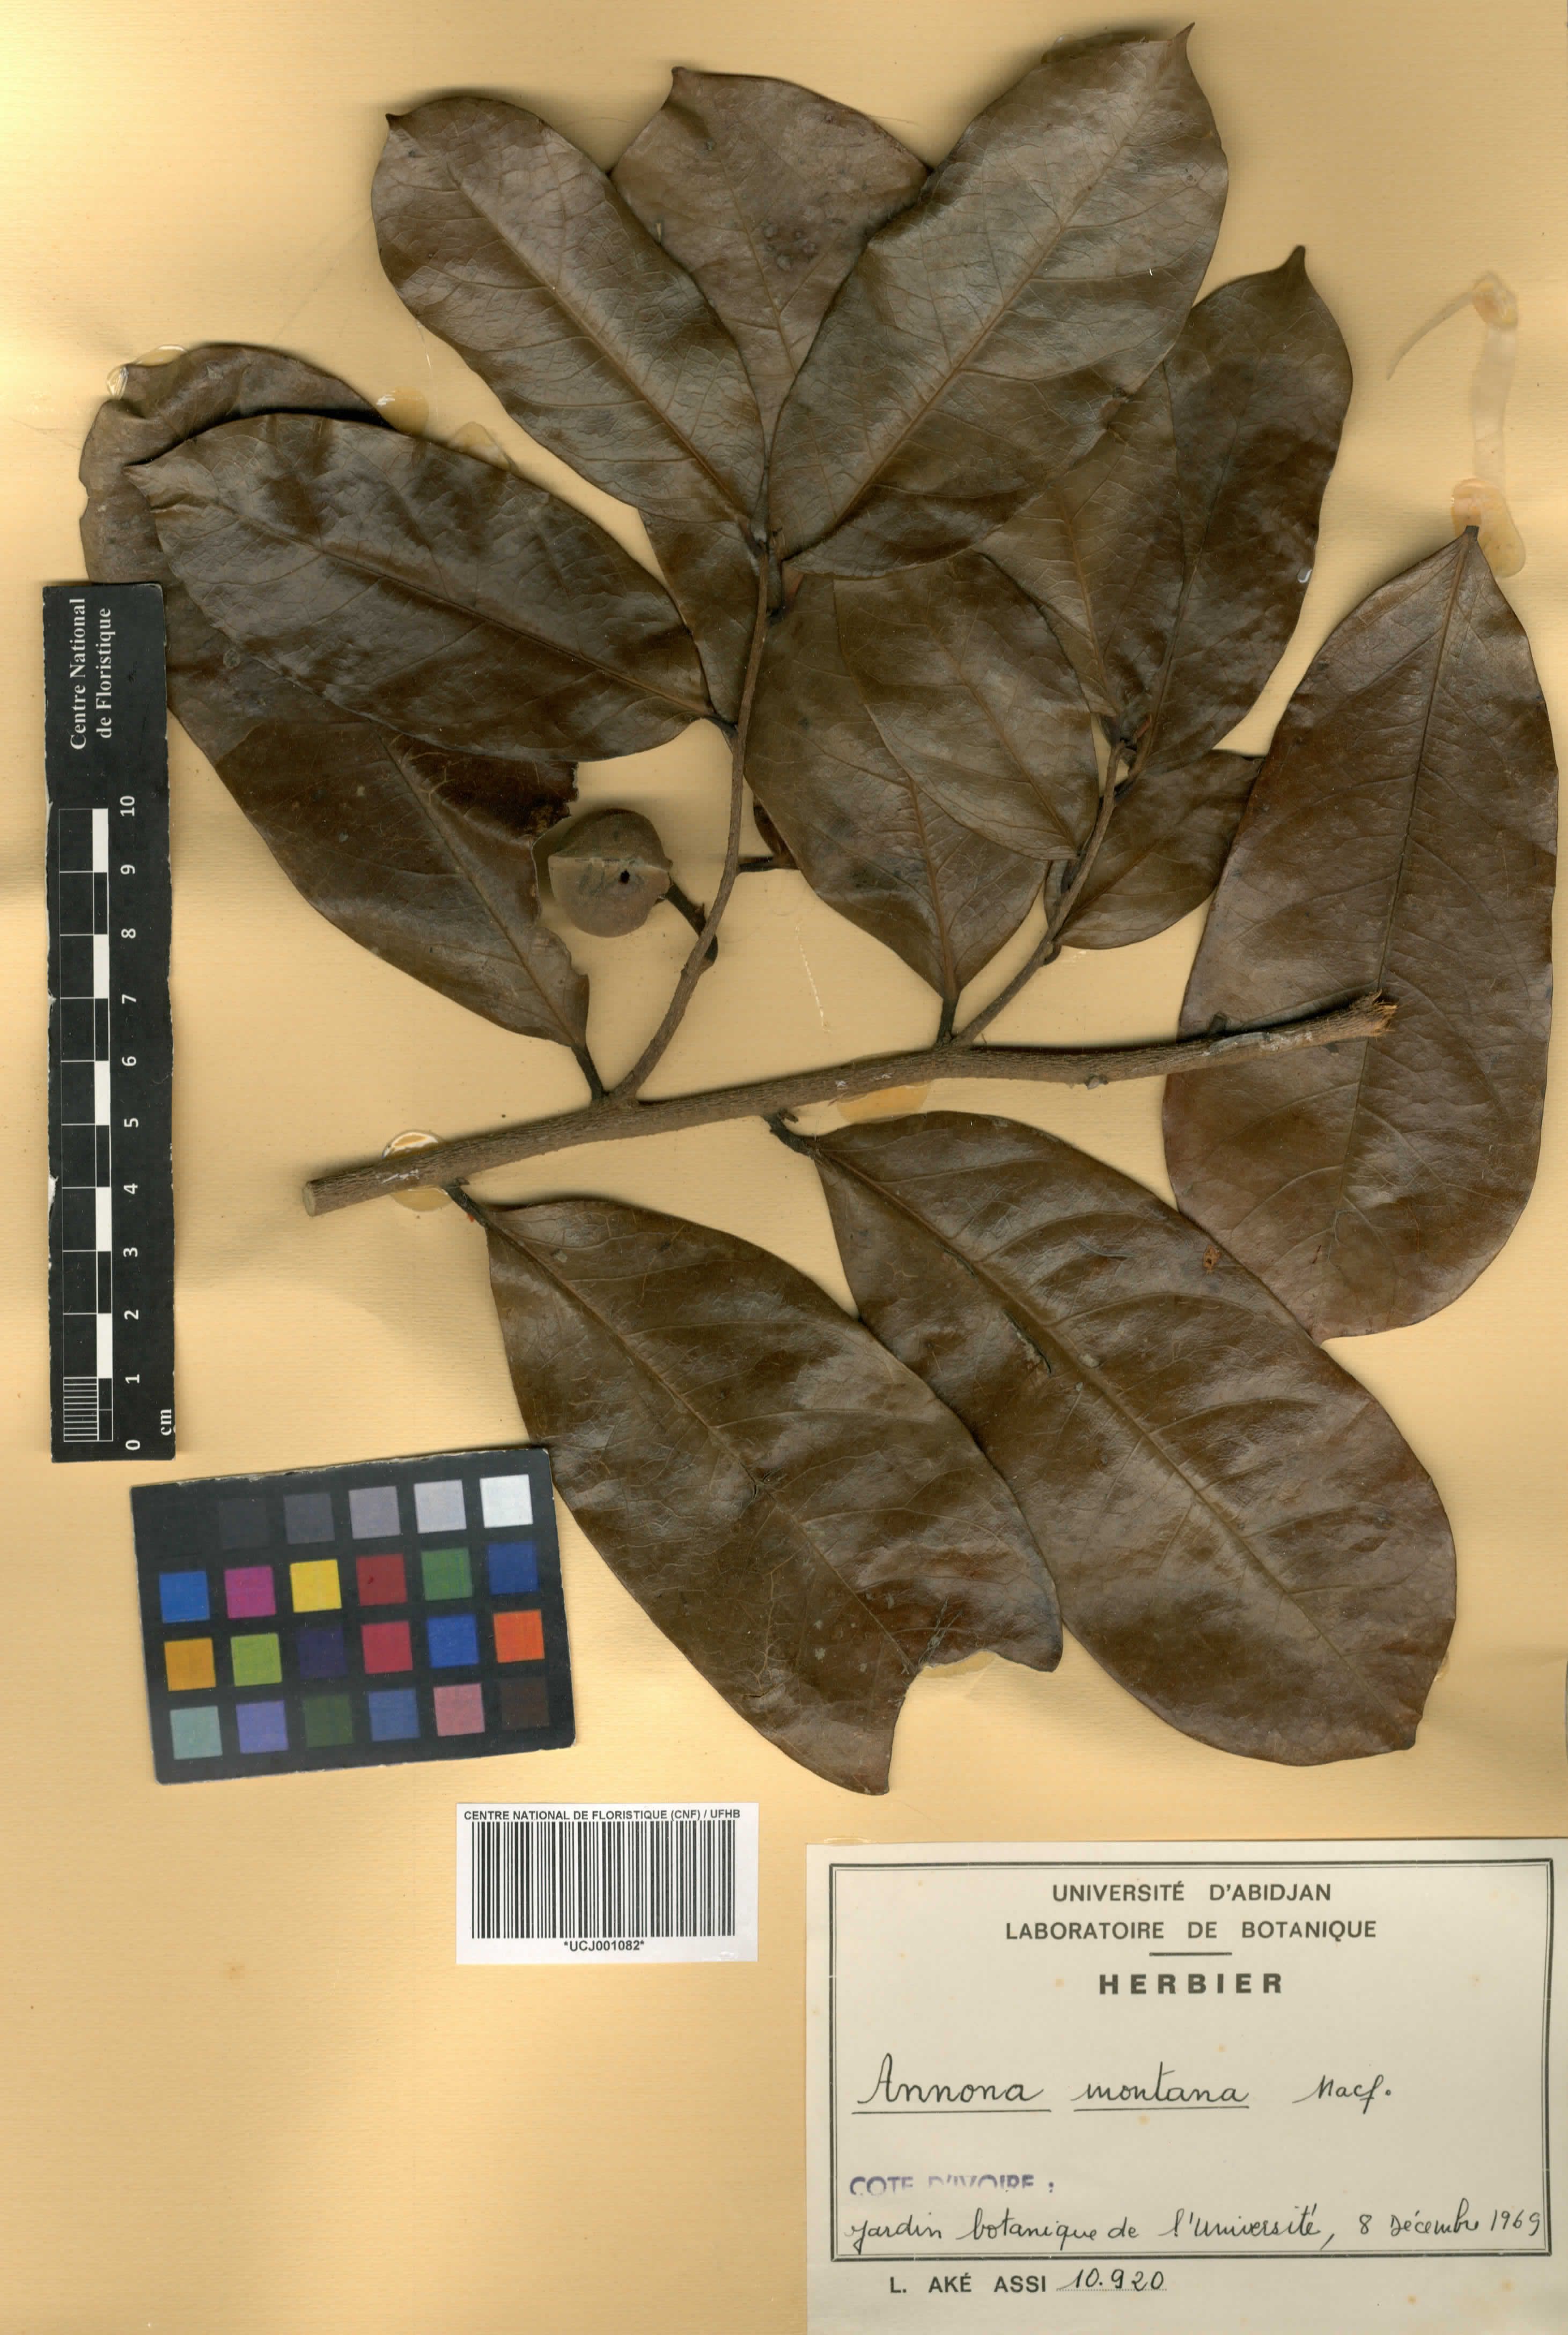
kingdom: Plantae
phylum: Tracheophyta
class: Magnoliopsida
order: Magnoliales
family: Annonaceae
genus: Annona
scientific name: Annona montana
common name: Mountain soursop
